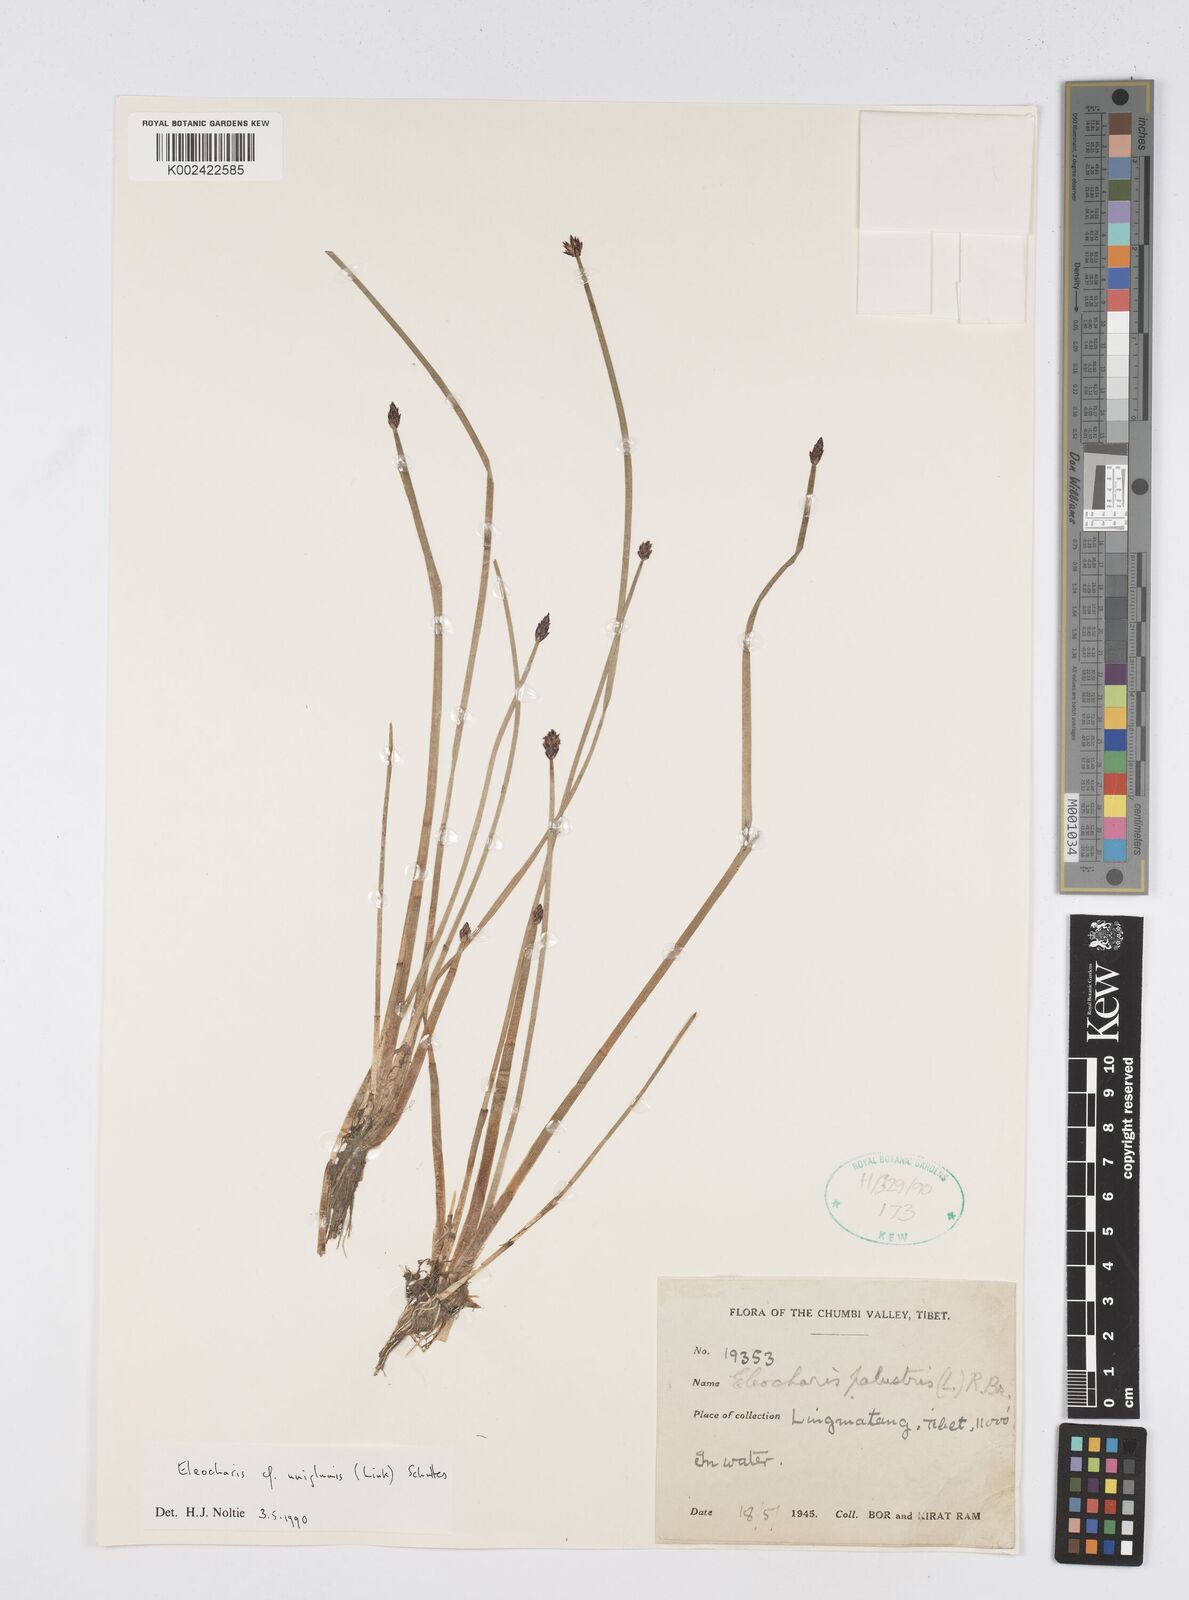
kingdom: Plantae
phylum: Tracheophyta
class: Liliopsida
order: Poales
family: Cyperaceae
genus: Eleocharis
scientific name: Eleocharis uniglumis
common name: Slender spike-rush
